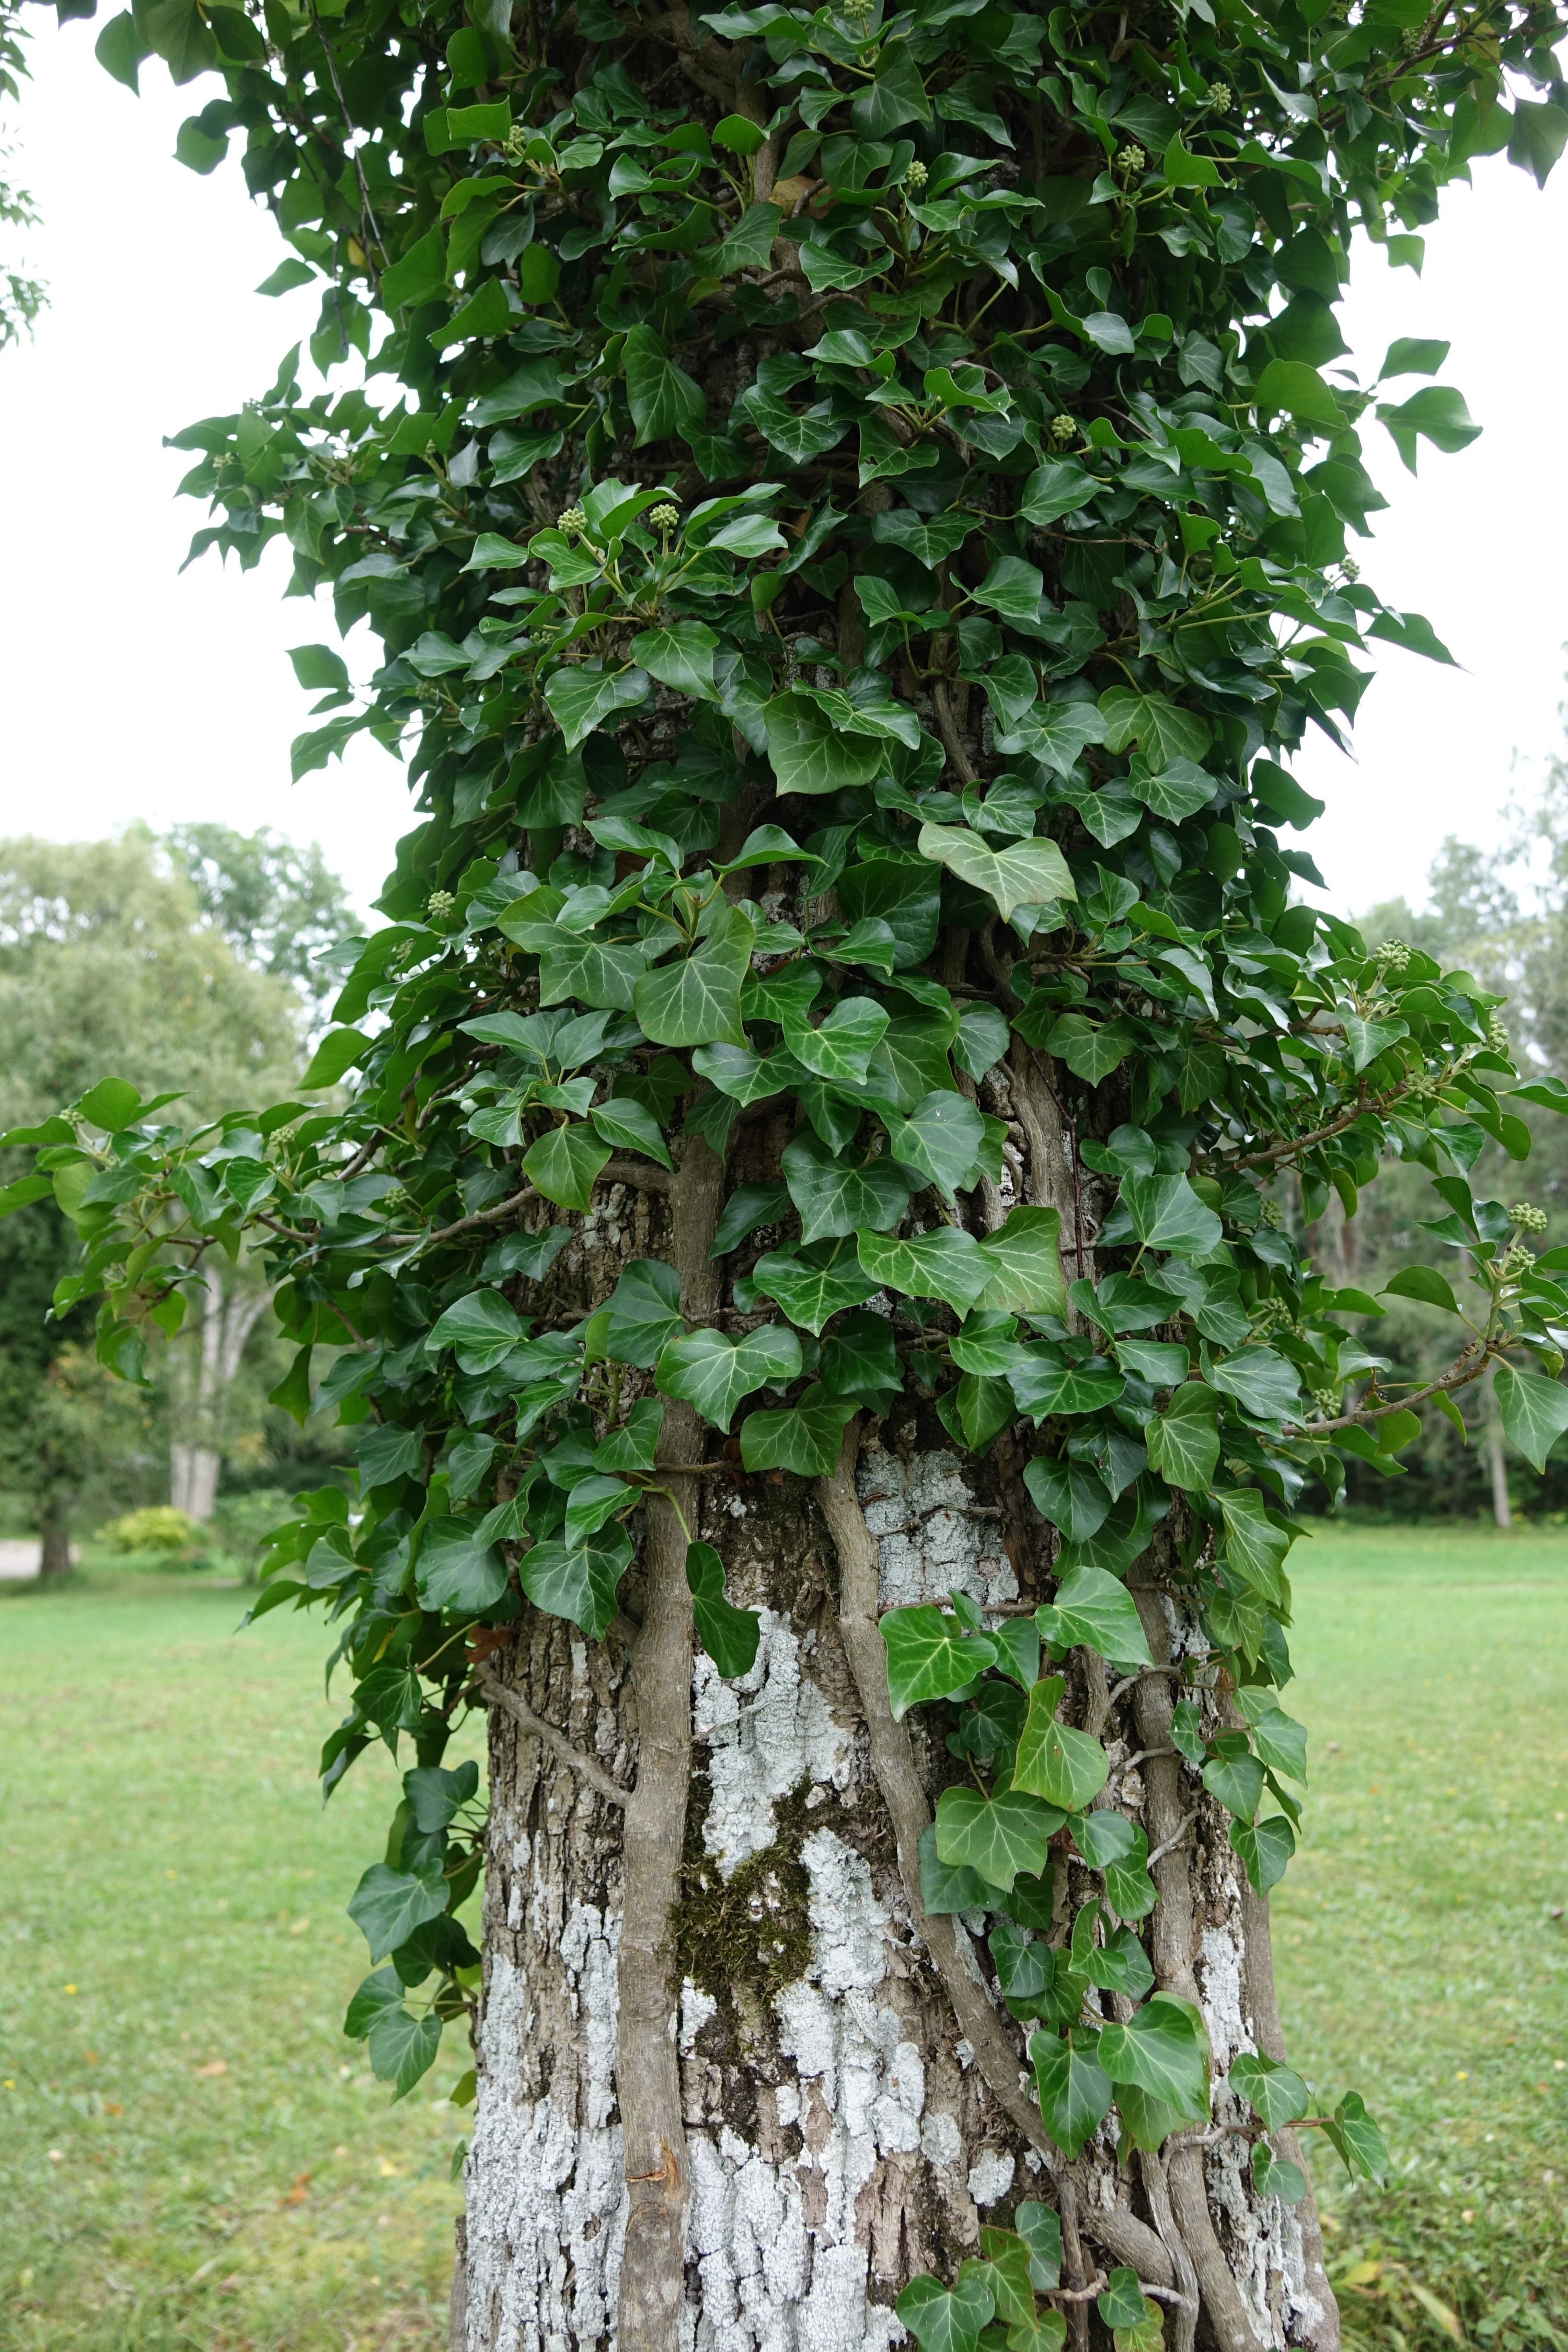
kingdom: Plantae
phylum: Tracheophyta
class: Magnoliopsida
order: Apiales
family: Araliaceae
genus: Hedera
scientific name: Hedera helix
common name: Ivy
